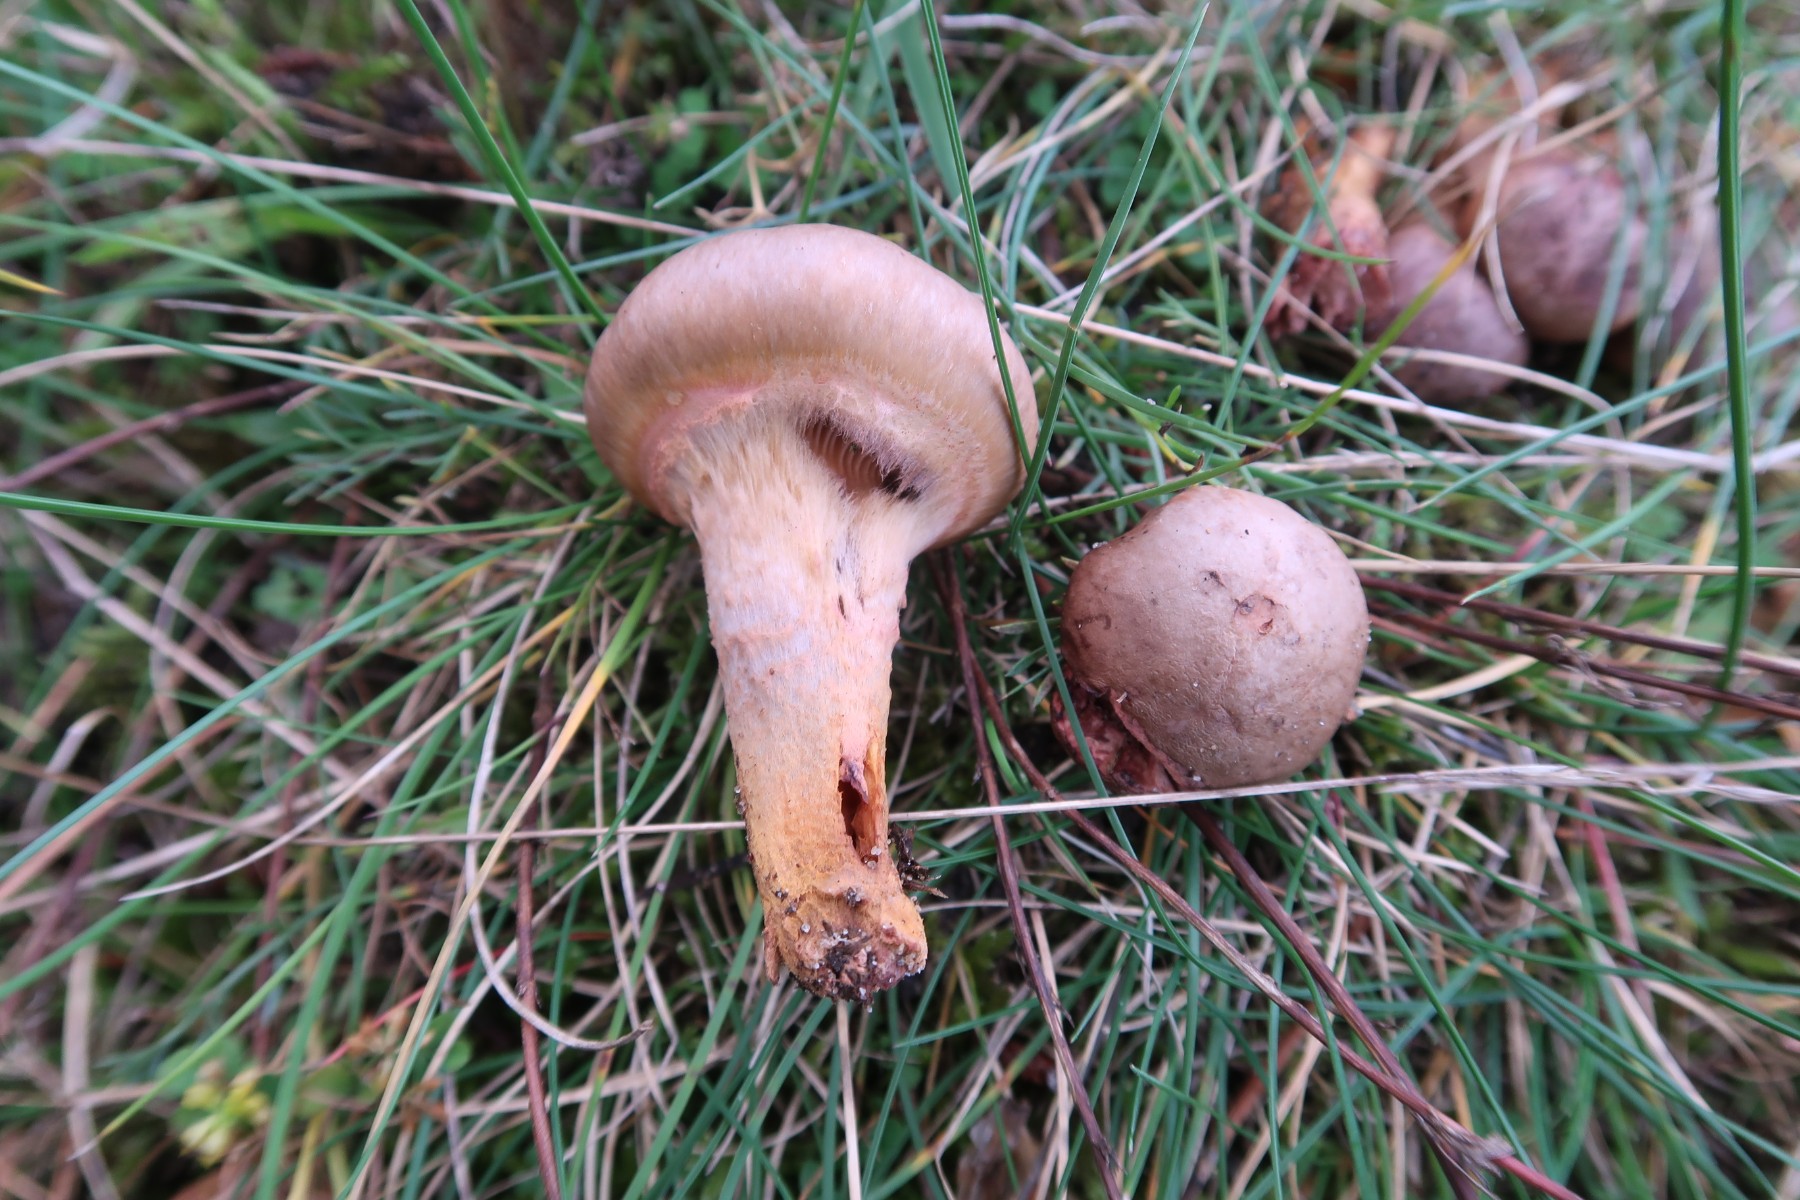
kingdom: Fungi
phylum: Basidiomycota
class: Agaricomycetes
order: Boletales
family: Gomphidiaceae
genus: Chroogomphus
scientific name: Chroogomphus rutilus
